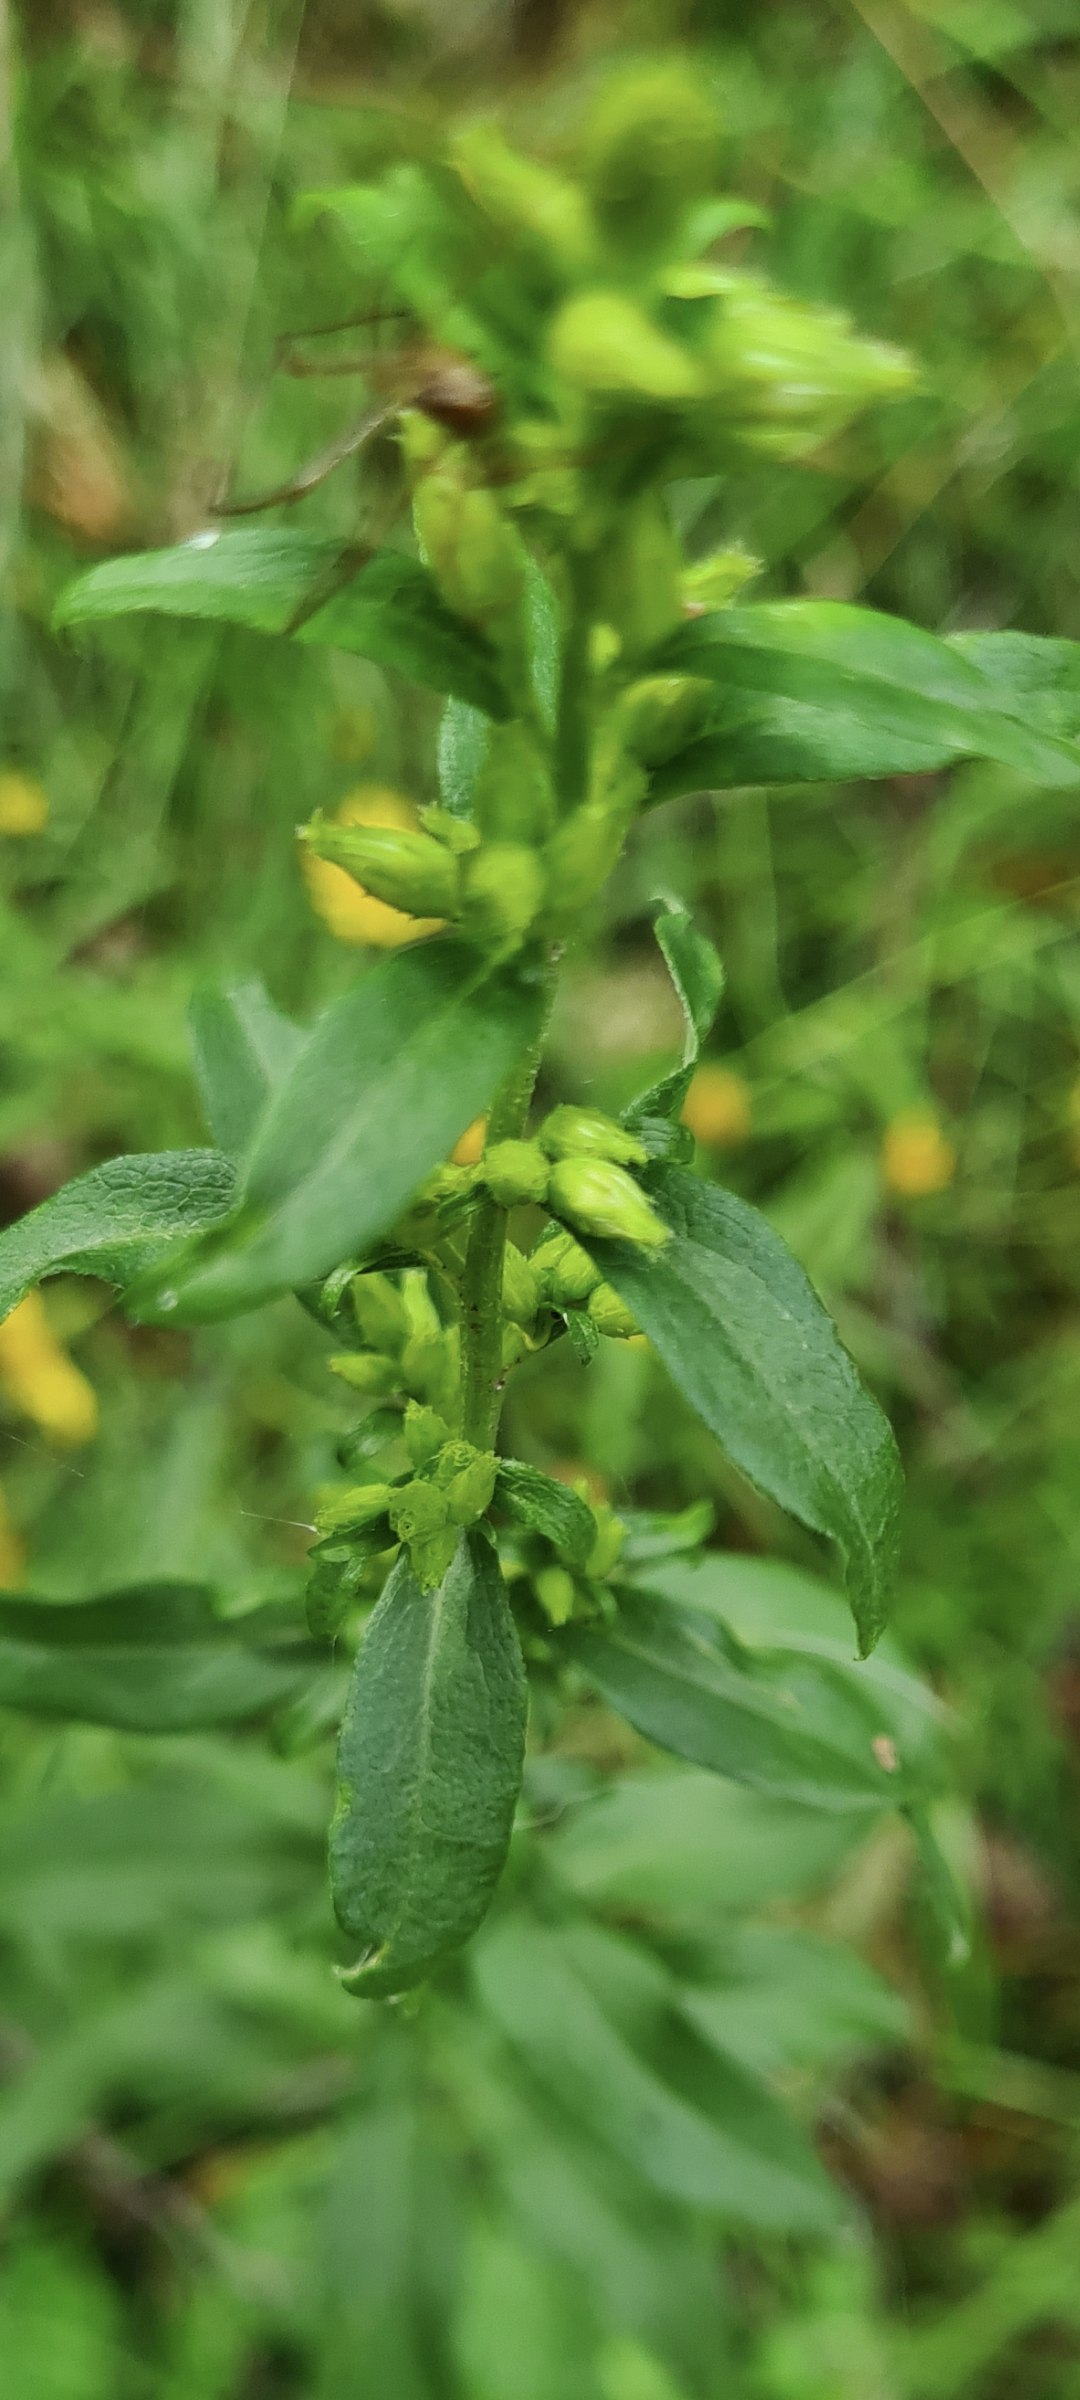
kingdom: Plantae
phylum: Tracheophyta
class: Magnoliopsida
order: Asterales
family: Asteraceae
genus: Solidago
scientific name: Solidago virgaurea
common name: Almindelig gyldenris
